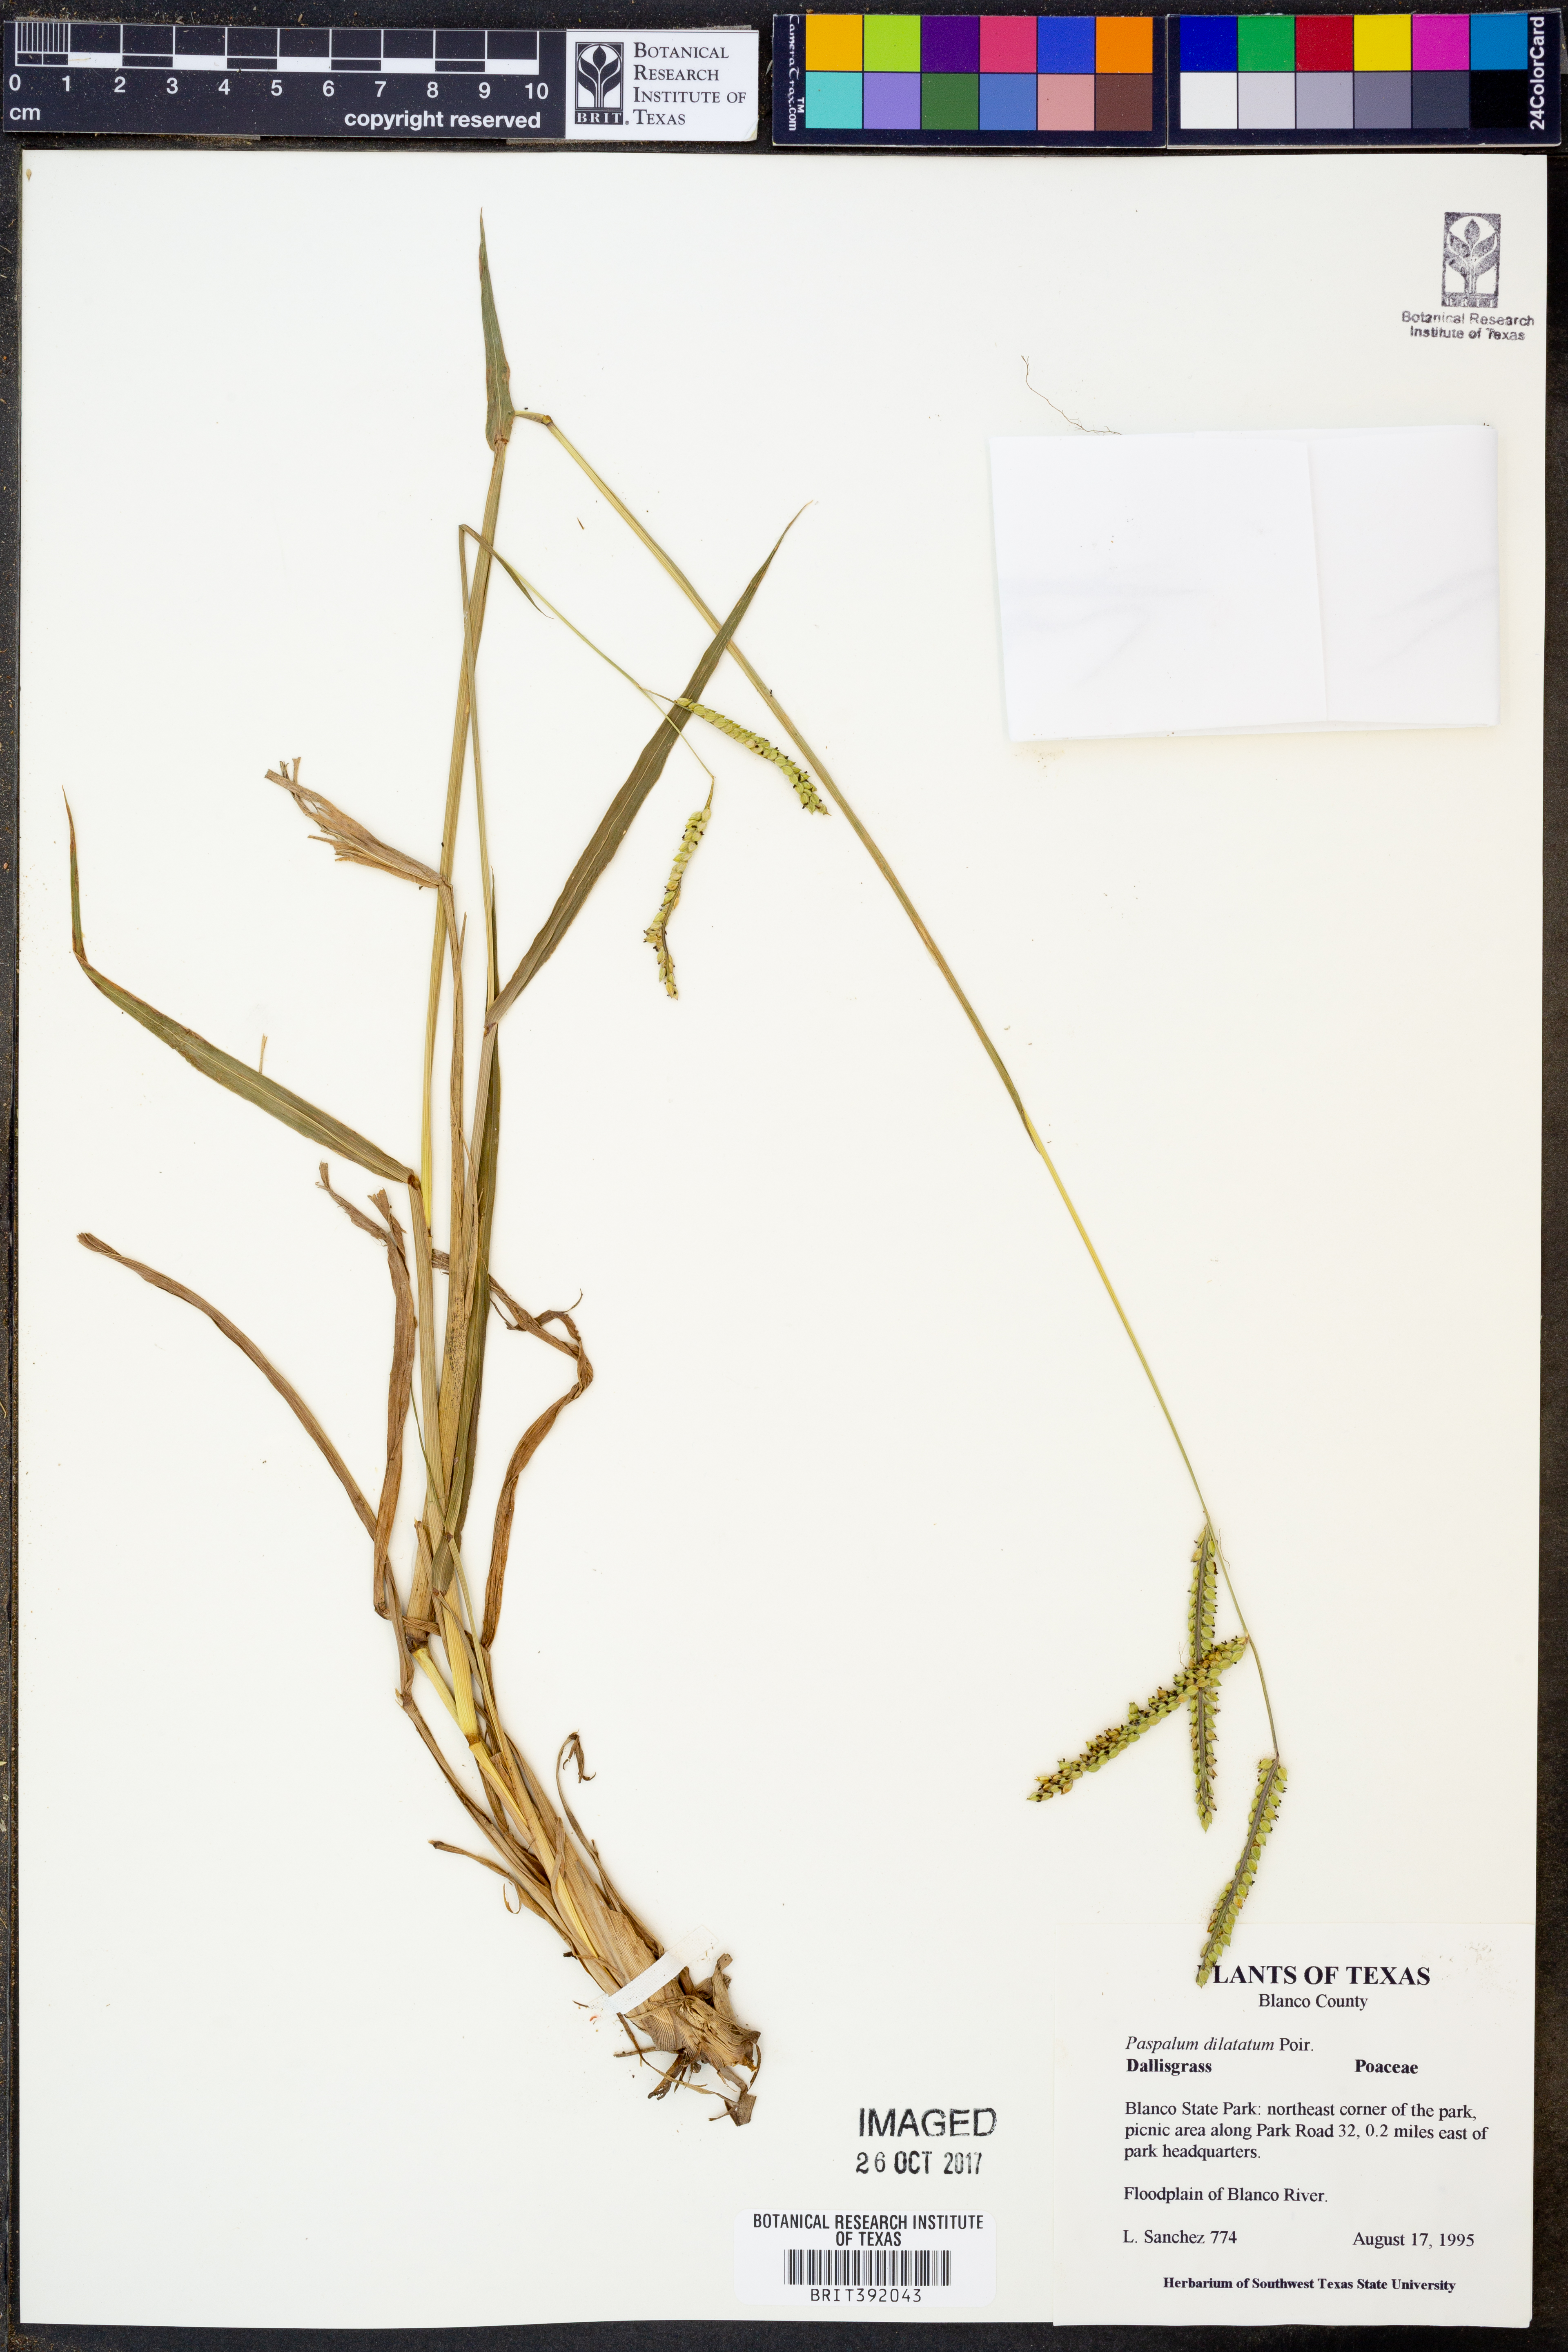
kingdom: Plantae
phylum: Tracheophyta
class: Liliopsida
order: Poales
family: Poaceae
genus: Paspalum
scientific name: Paspalum dilatatum
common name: Dallisgrass
